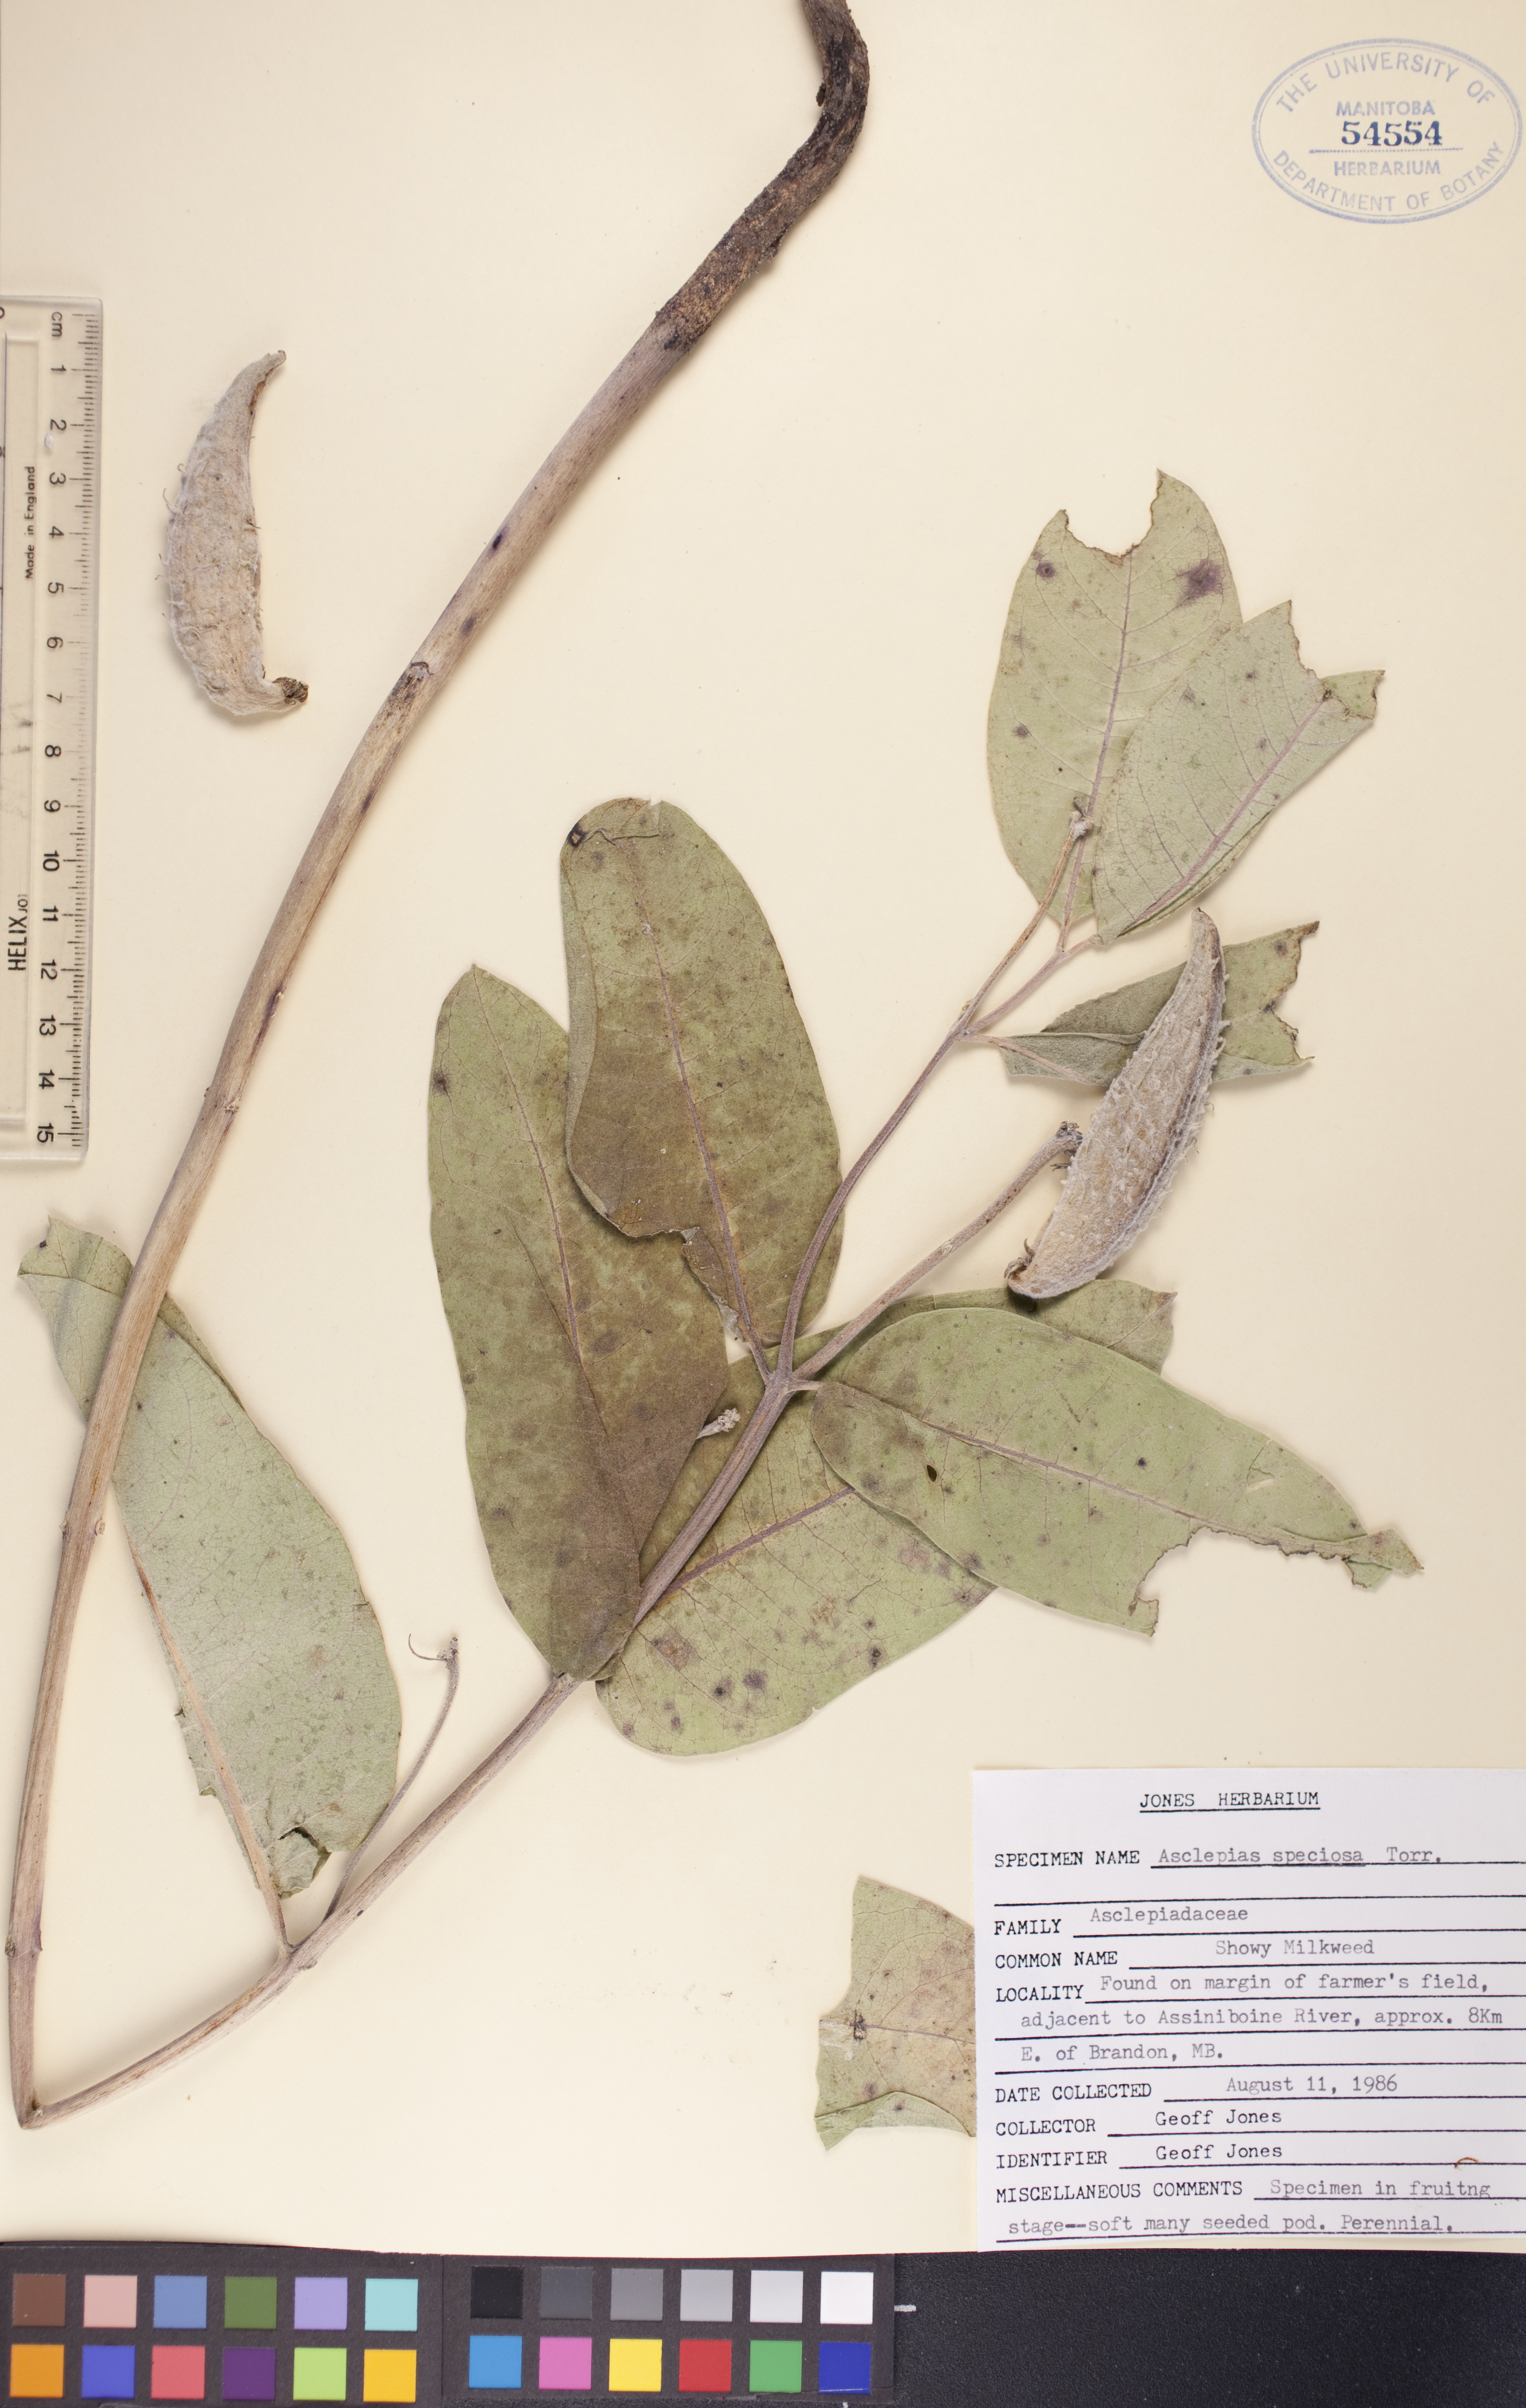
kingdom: Plantae
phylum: Tracheophyta
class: Magnoliopsida
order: Gentianales
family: Apocynaceae
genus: Asclepias
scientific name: Asclepias speciosa
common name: Showy milkweed
